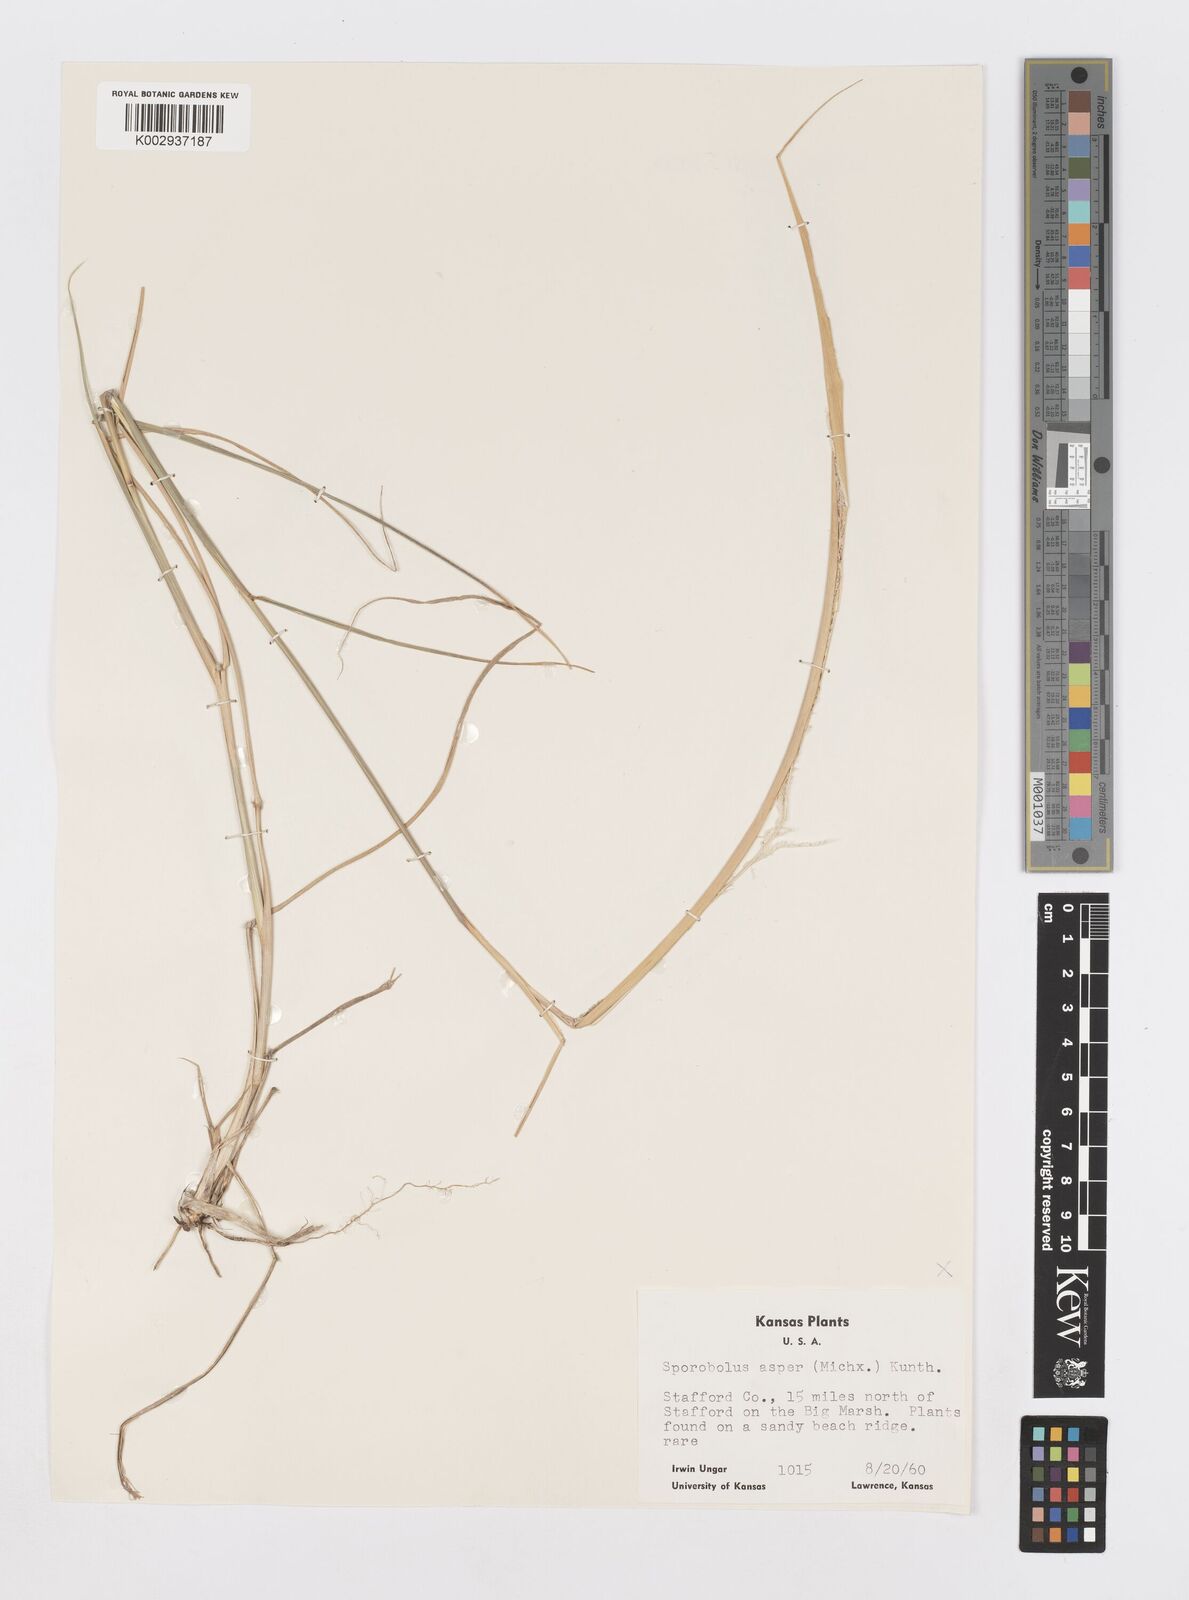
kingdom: Plantae
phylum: Tracheophyta
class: Liliopsida
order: Poales
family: Poaceae
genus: Sporobolus
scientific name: Sporobolus compositus
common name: Rough dropseed
